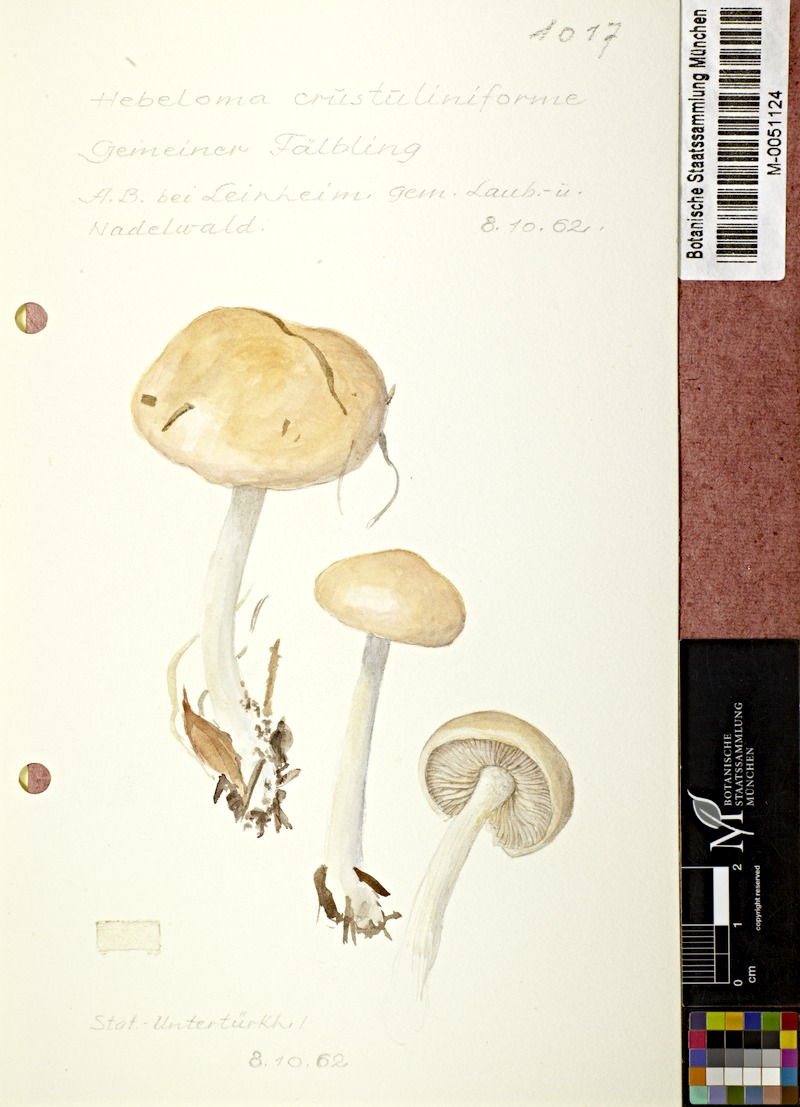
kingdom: Fungi
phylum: Basidiomycota
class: Agaricomycetes
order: Agaricales
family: Hymenogastraceae
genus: Hebeloma
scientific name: Hebeloma crustuliniforme
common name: Poison pie
